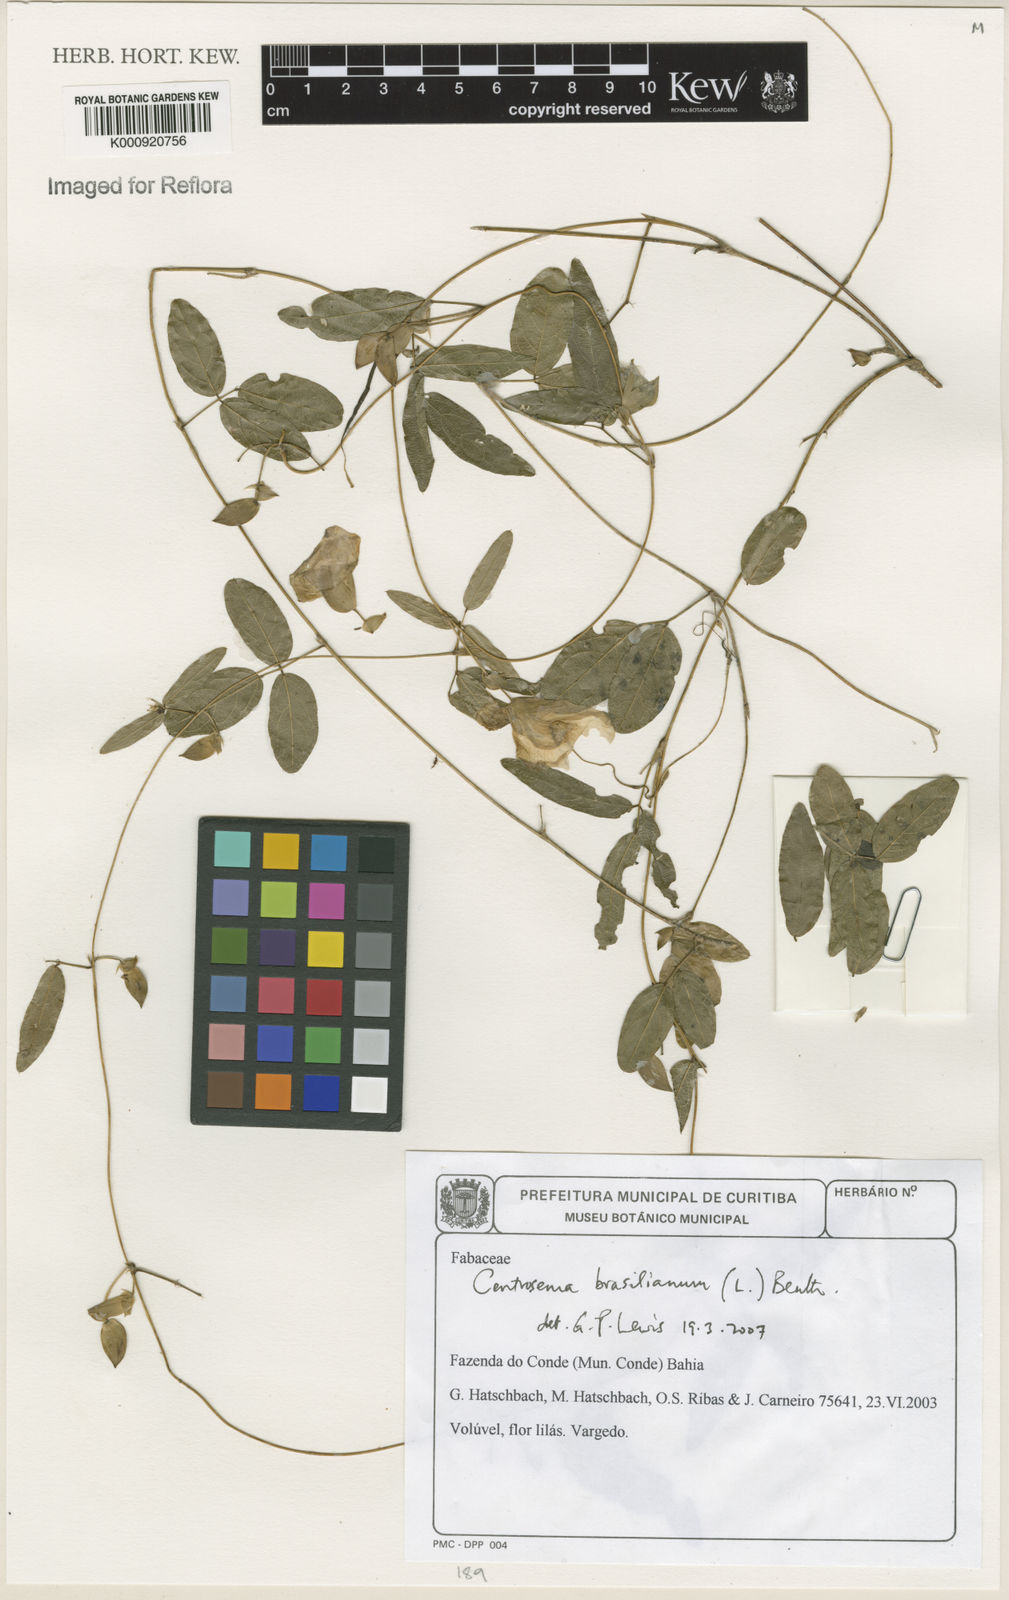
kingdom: Plantae
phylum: Tracheophyta
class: Magnoliopsida
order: Fabales
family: Fabaceae
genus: Centrosema
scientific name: Centrosema brasilianum
